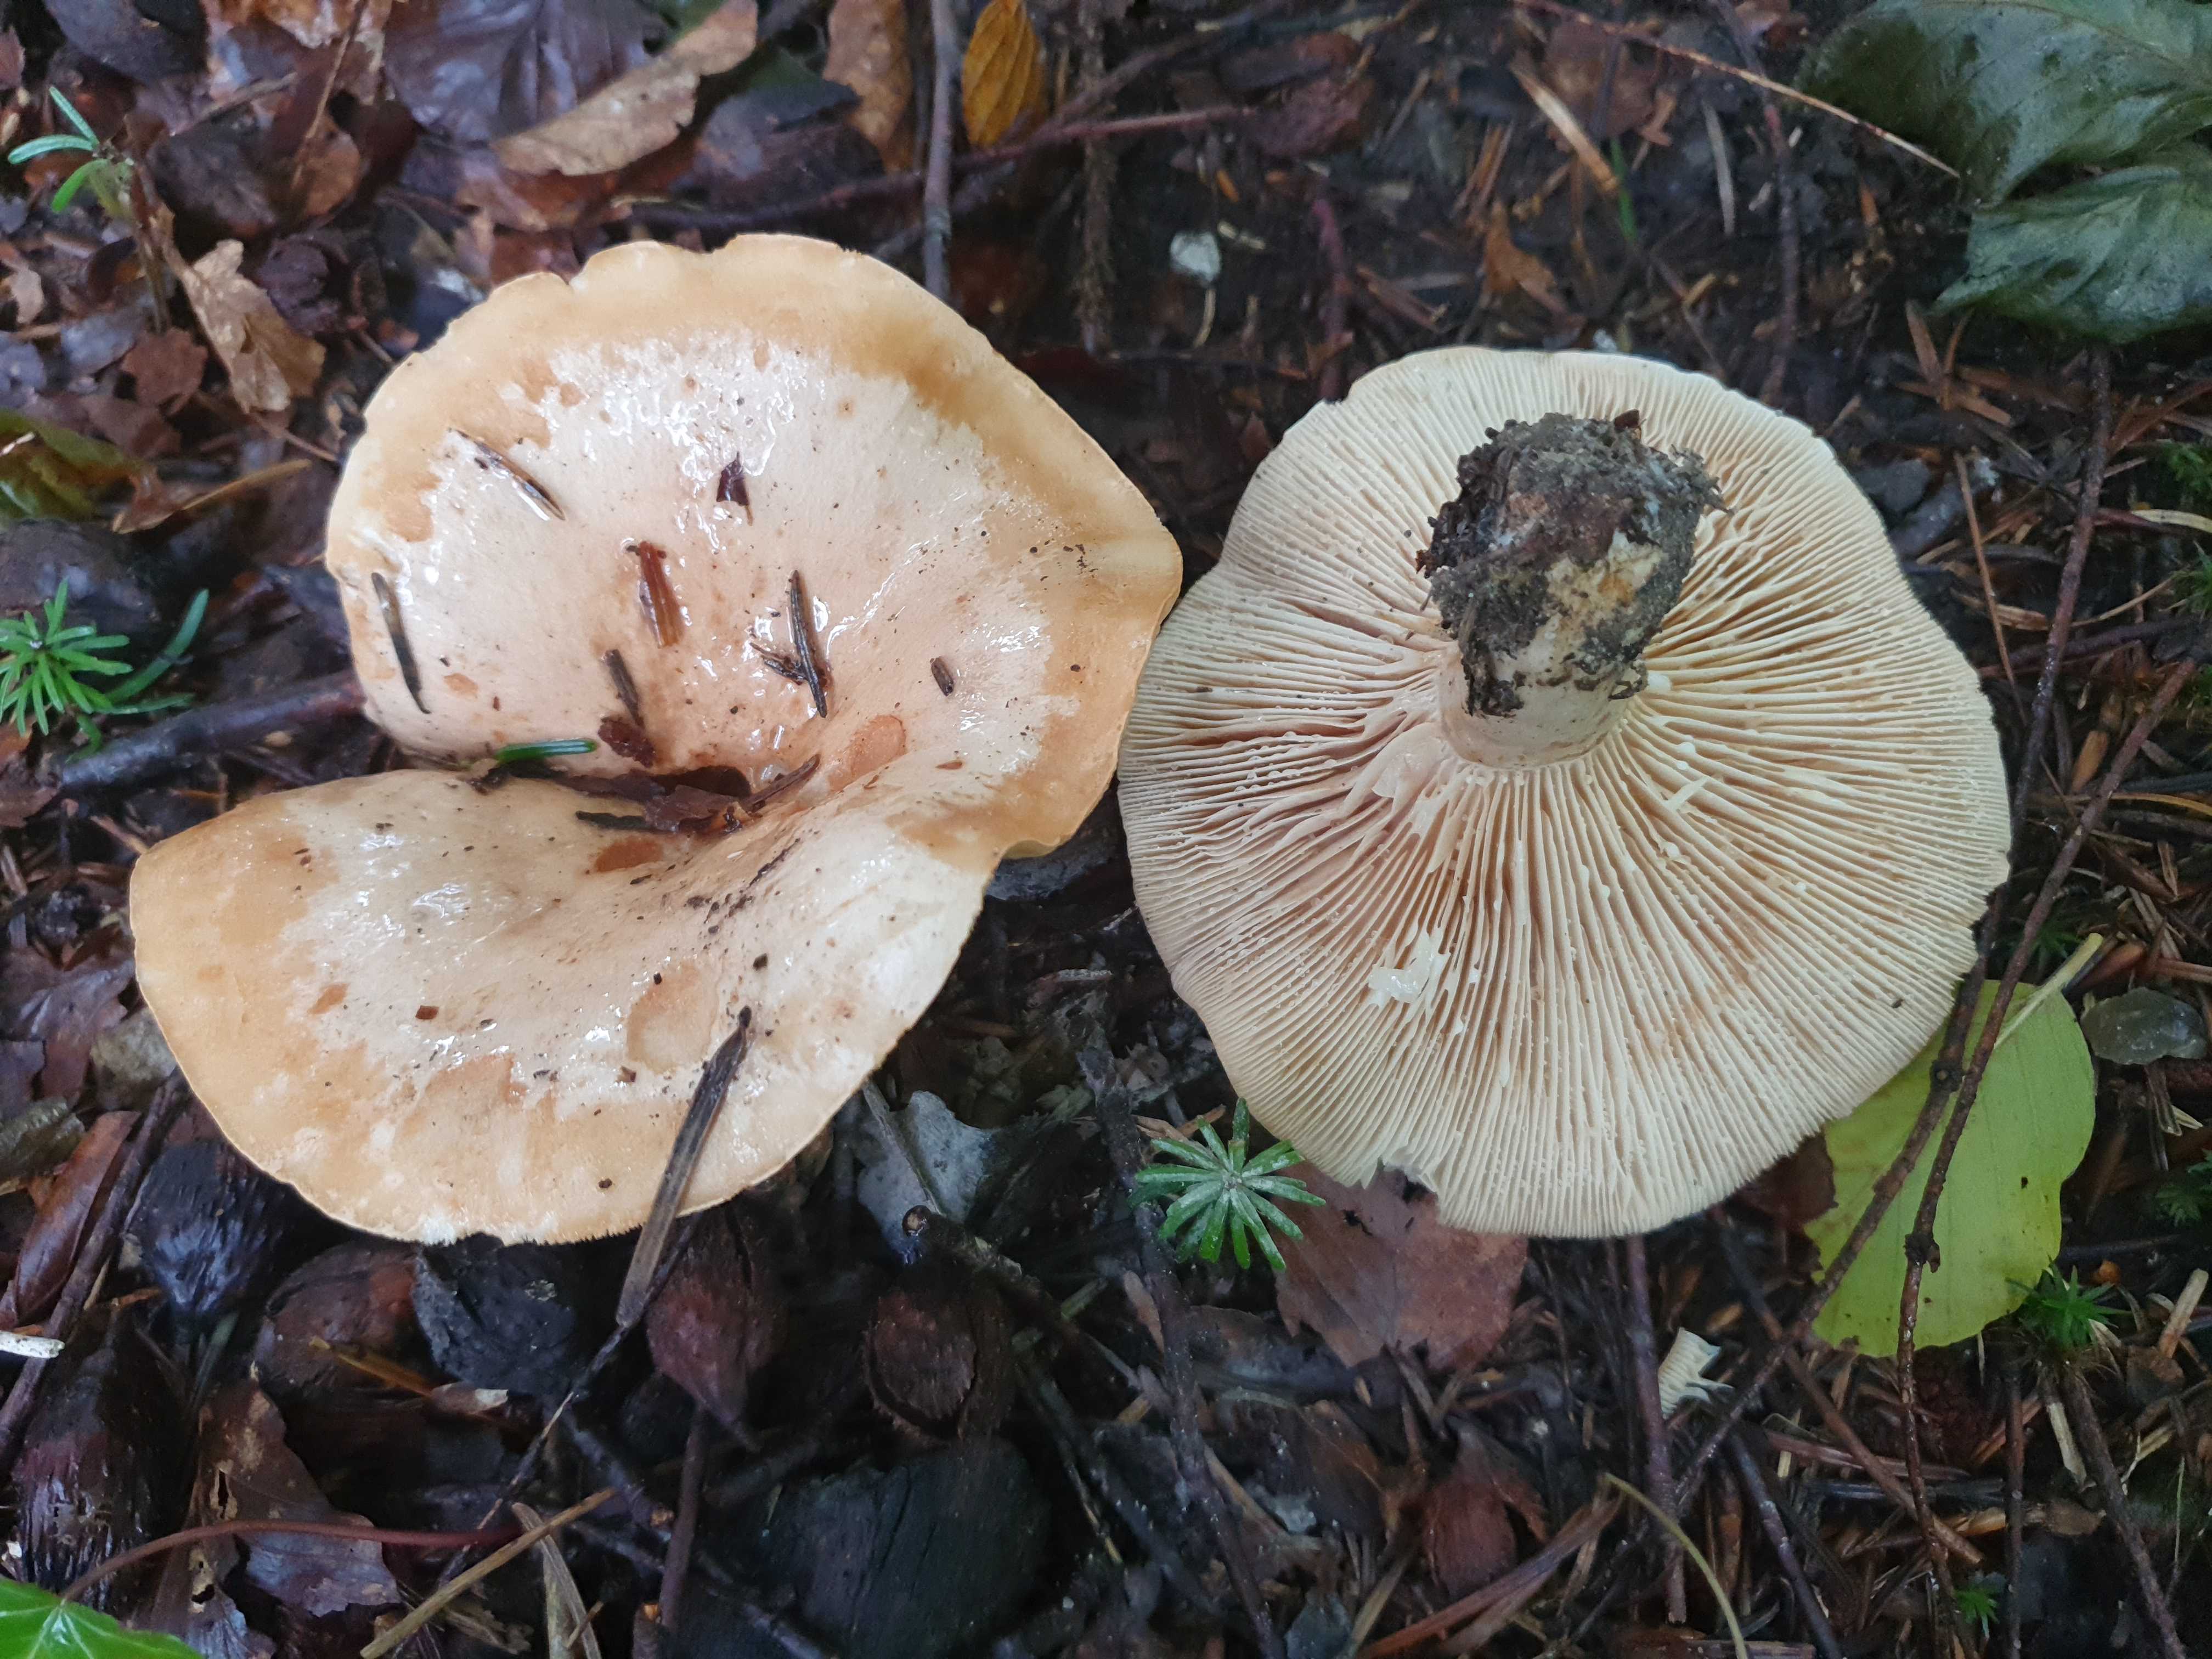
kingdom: Fungi
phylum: Basidiomycota
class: Agaricomycetes
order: Russulales
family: Russulaceae
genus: Lactarius
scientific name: Lactarius pallidus
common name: bleg mælkehat
